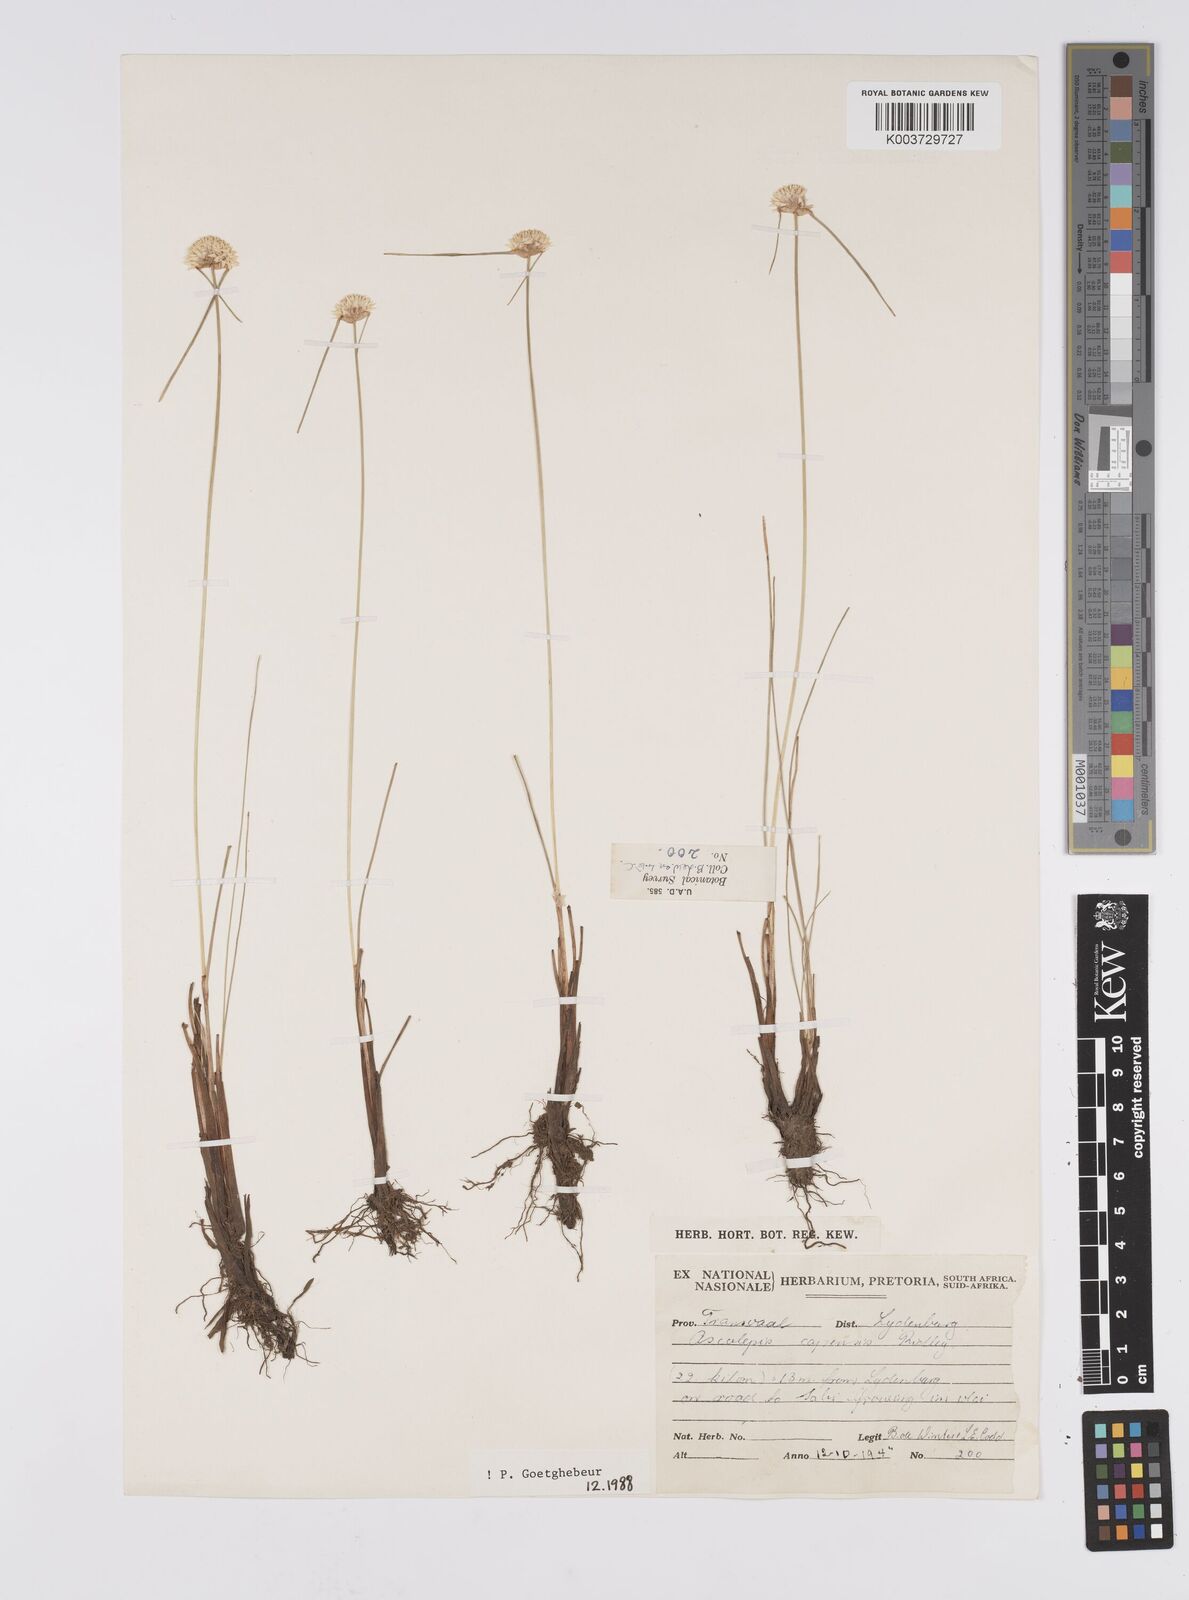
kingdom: Plantae
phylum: Tracheophyta
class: Liliopsida
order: Poales
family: Cyperaceae
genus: Cyperus
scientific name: Cyperus capensis
